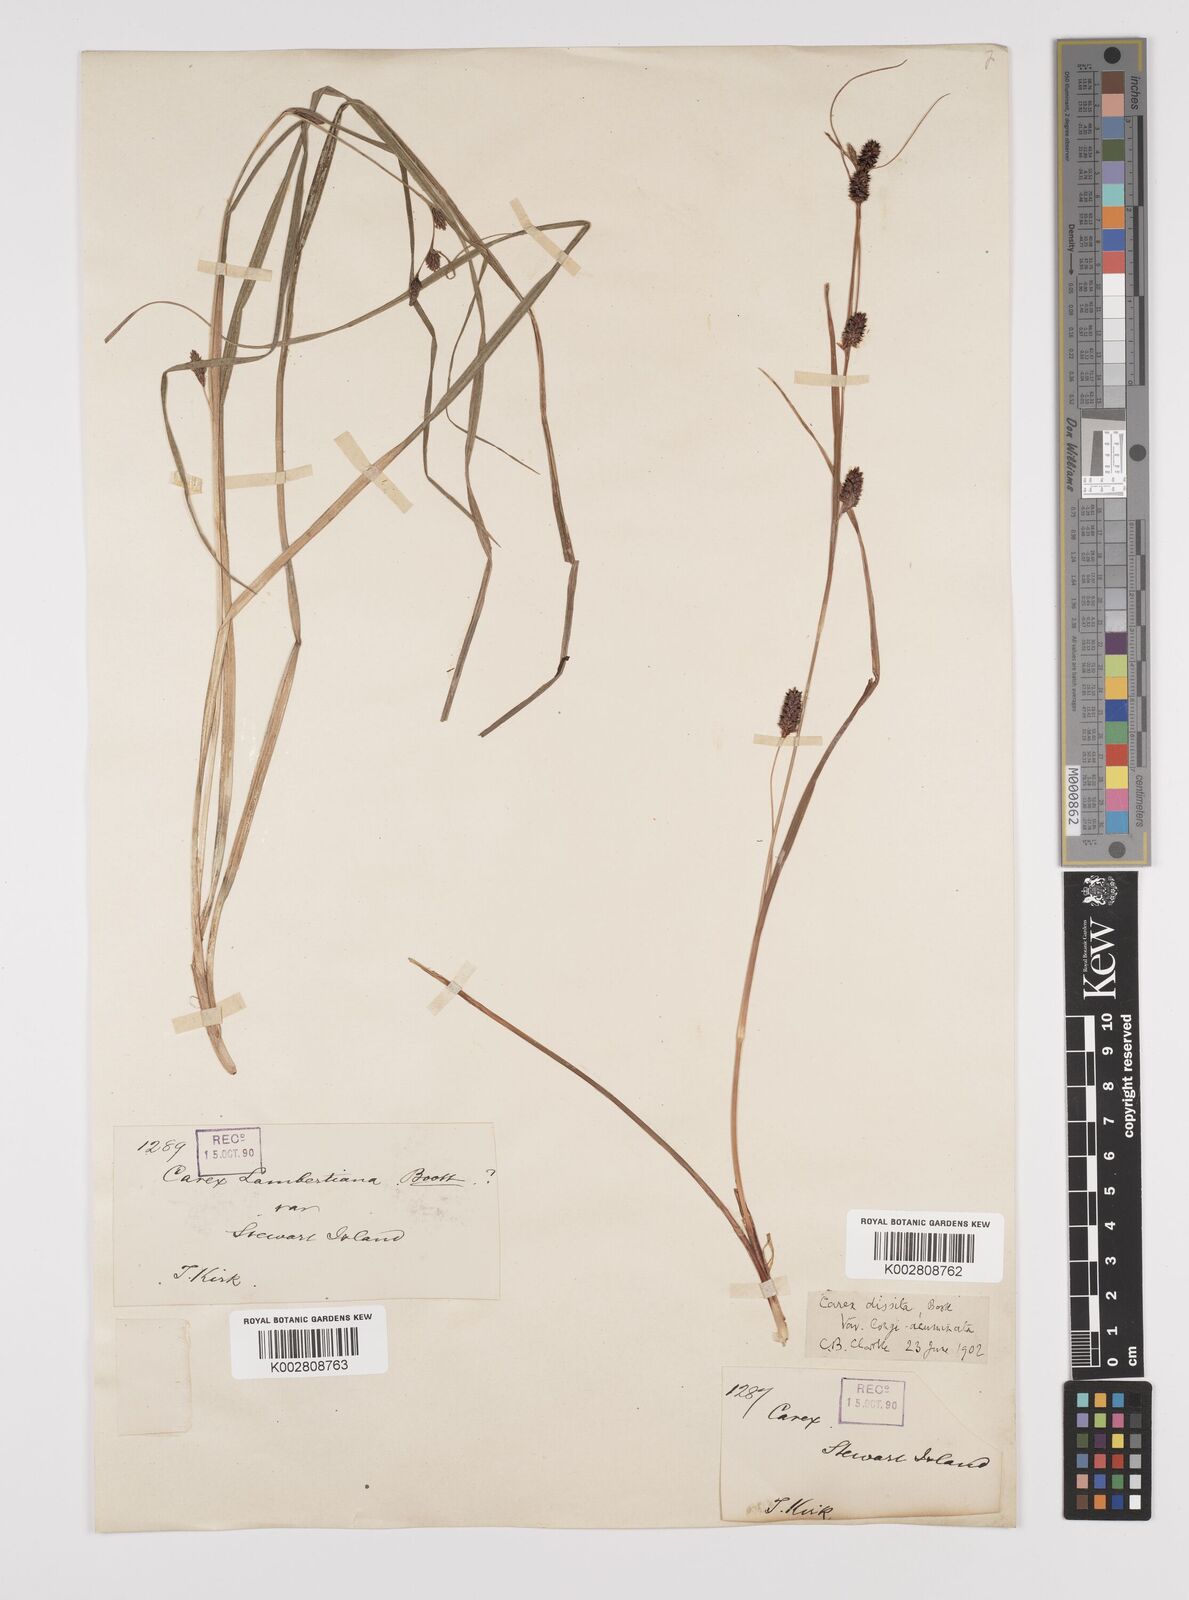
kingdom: Plantae
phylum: Tracheophyta
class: Liliopsida
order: Poales
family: Cyperaceae
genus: Carex
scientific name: Carex dissita
